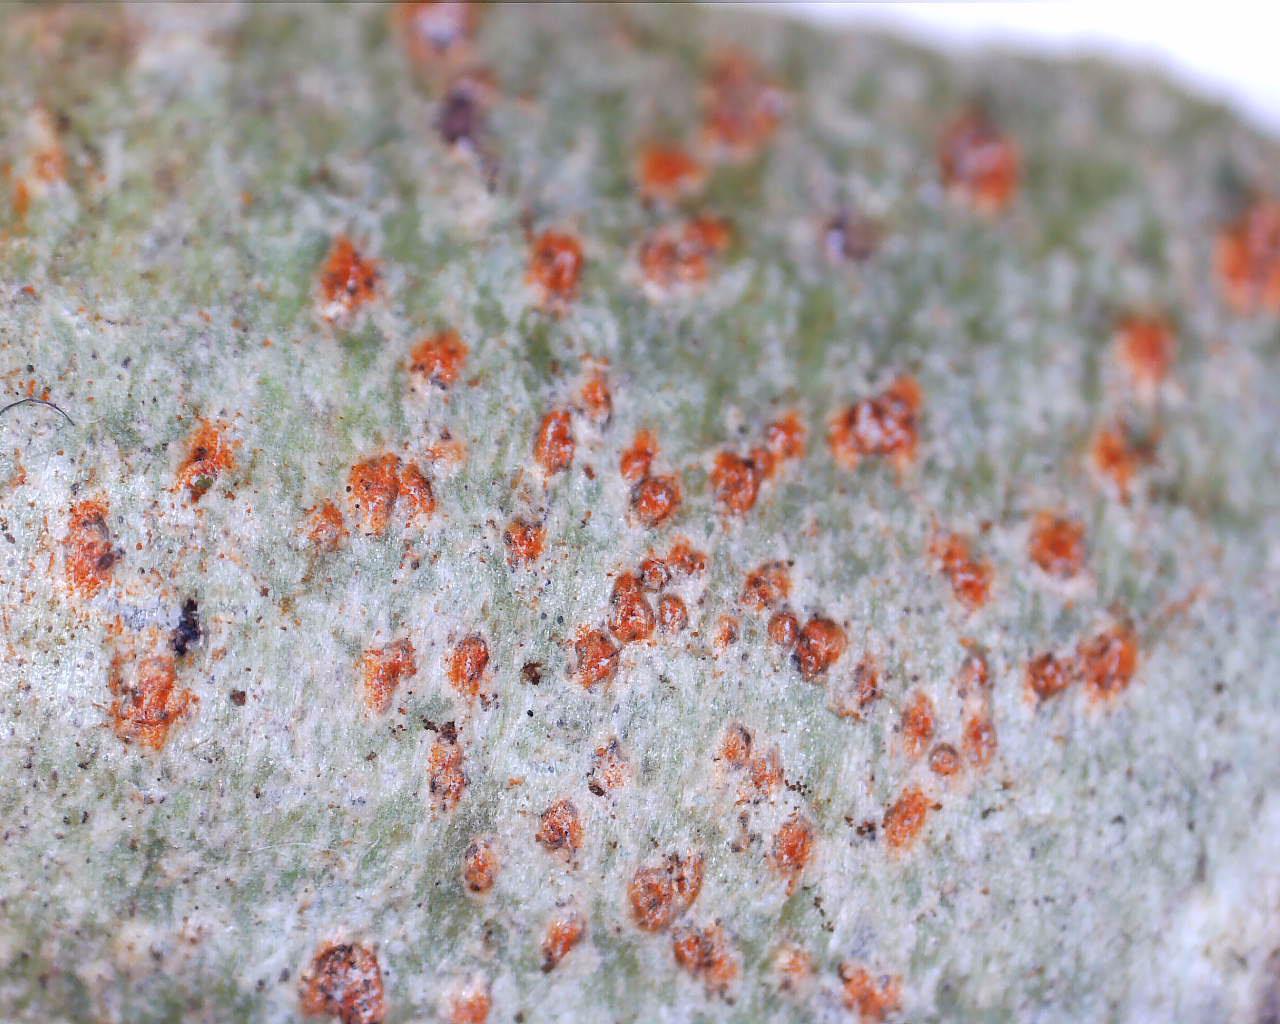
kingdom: Fungi
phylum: Ascomycota
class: Arthoniomycetes
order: Arthoniales
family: Arthoniaceae
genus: Coniocarpon
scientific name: Coniocarpon cinnabarinum
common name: cinnober-pletlav
